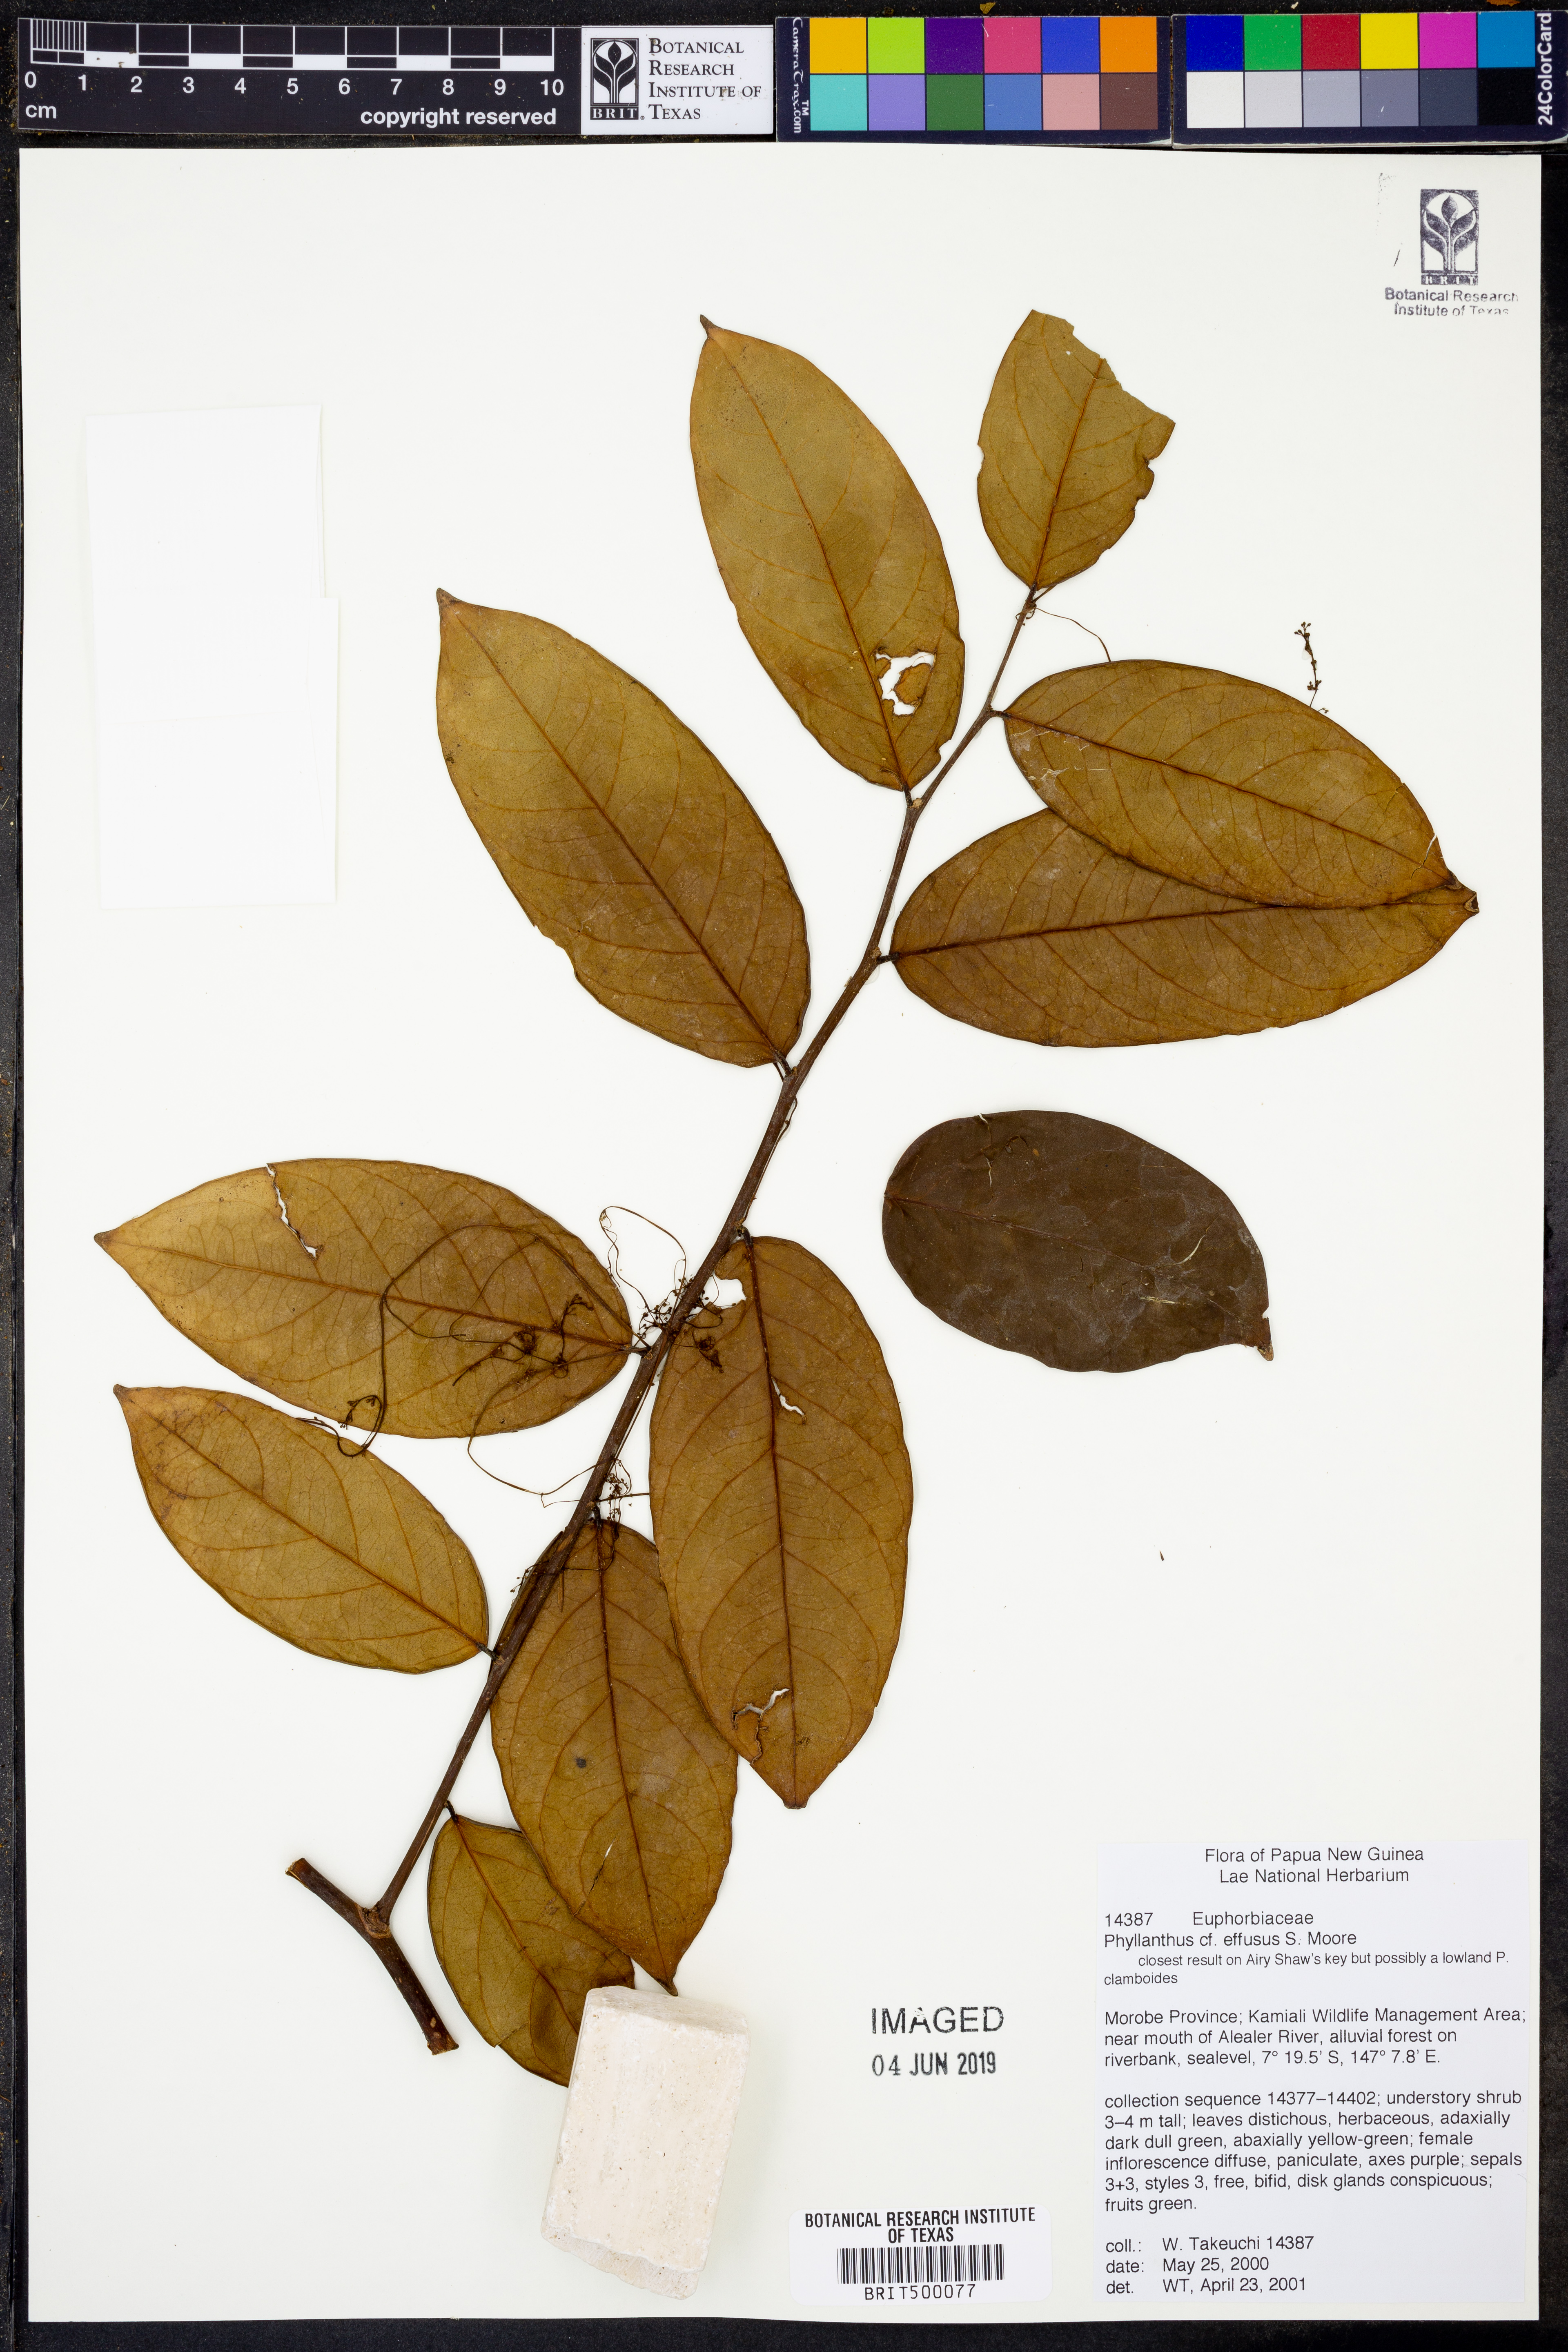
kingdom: Plantae
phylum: Tracheophyta
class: Magnoliopsida
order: Malpighiales
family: Phyllanthaceae
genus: Phyllanthus
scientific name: Phyllanthus effusus
